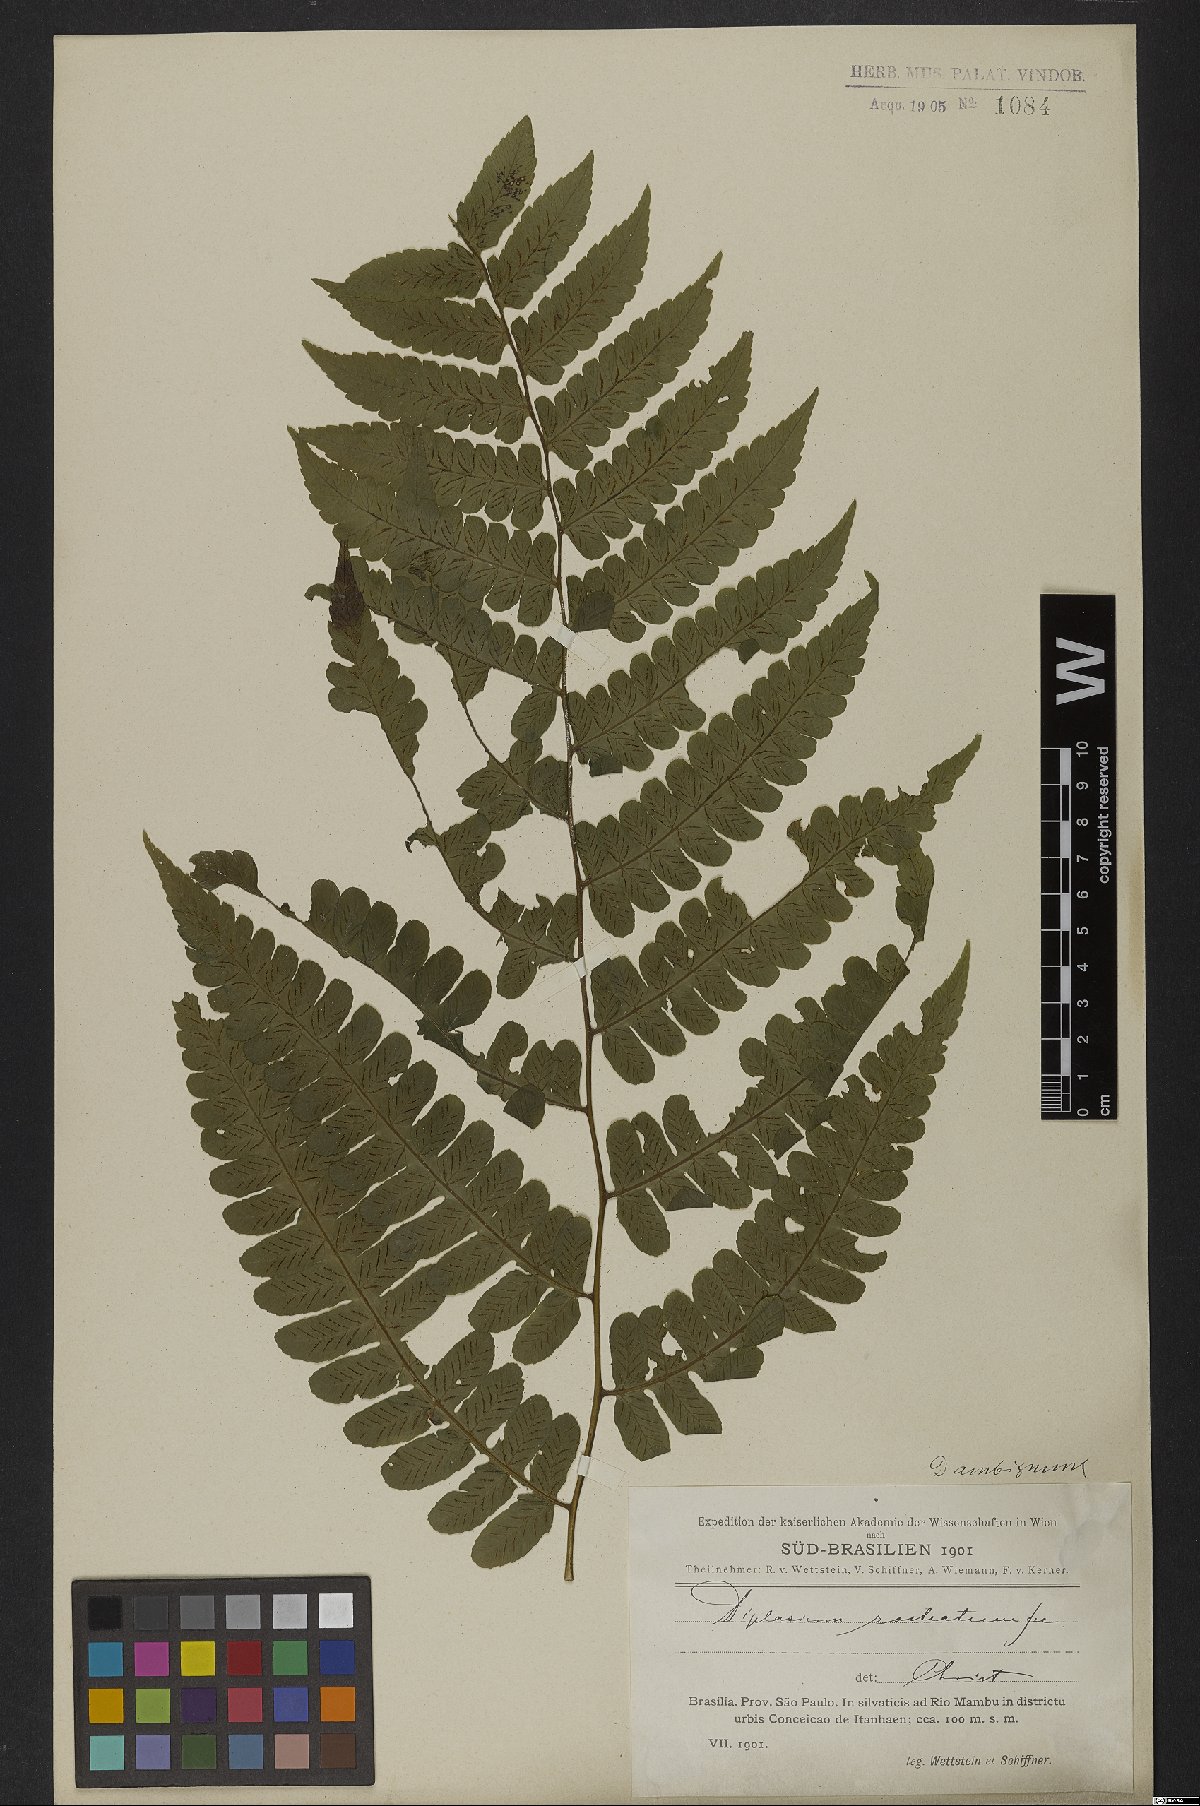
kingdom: Plantae
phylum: Tracheophyta
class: Polypodiopsida
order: Polypodiales
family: Athyriaceae
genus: Diplazium
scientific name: Diplazium ambiguum
